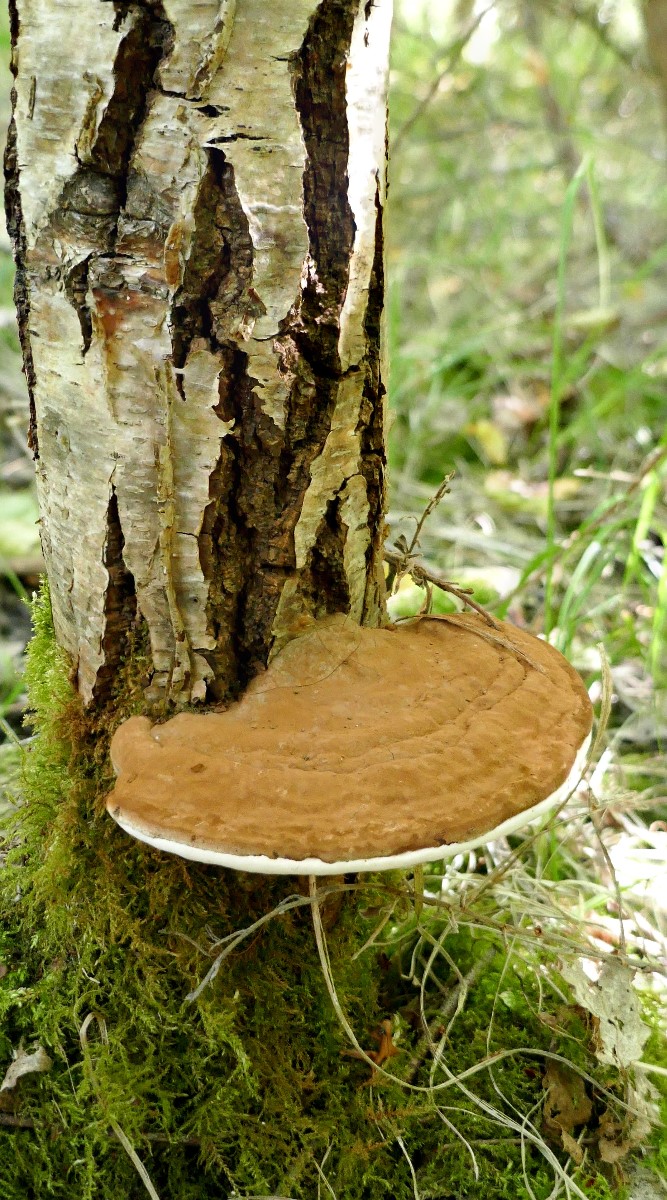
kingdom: Fungi
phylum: Basidiomycota
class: Agaricomycetes
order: Polyporales
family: Polyporaceae
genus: Ganoderma
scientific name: Ganoderma applanatum
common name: flad lakporesvamp
